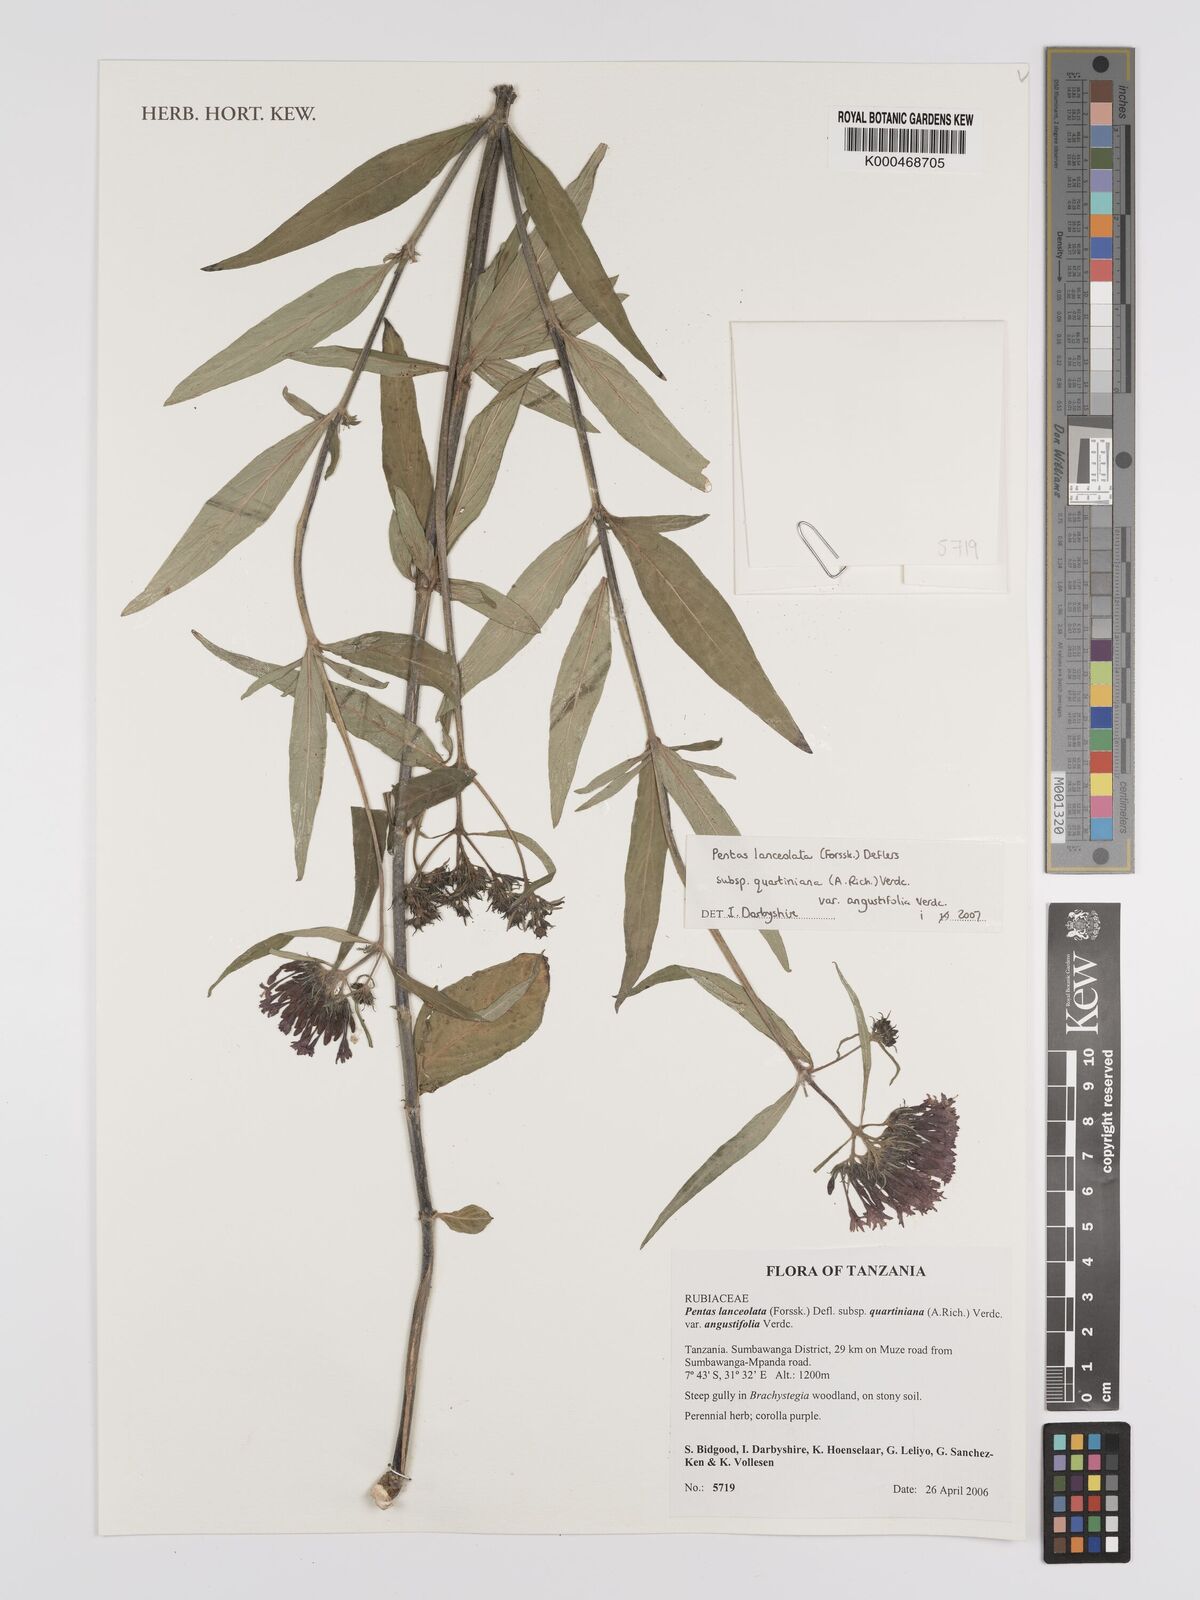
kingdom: Plantae
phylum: Tracheophyta
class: Magnoliopsida
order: Gentianales
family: Rubiaceae
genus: Pentas
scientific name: Pentas lanceolata
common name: Egyptian starcluster
